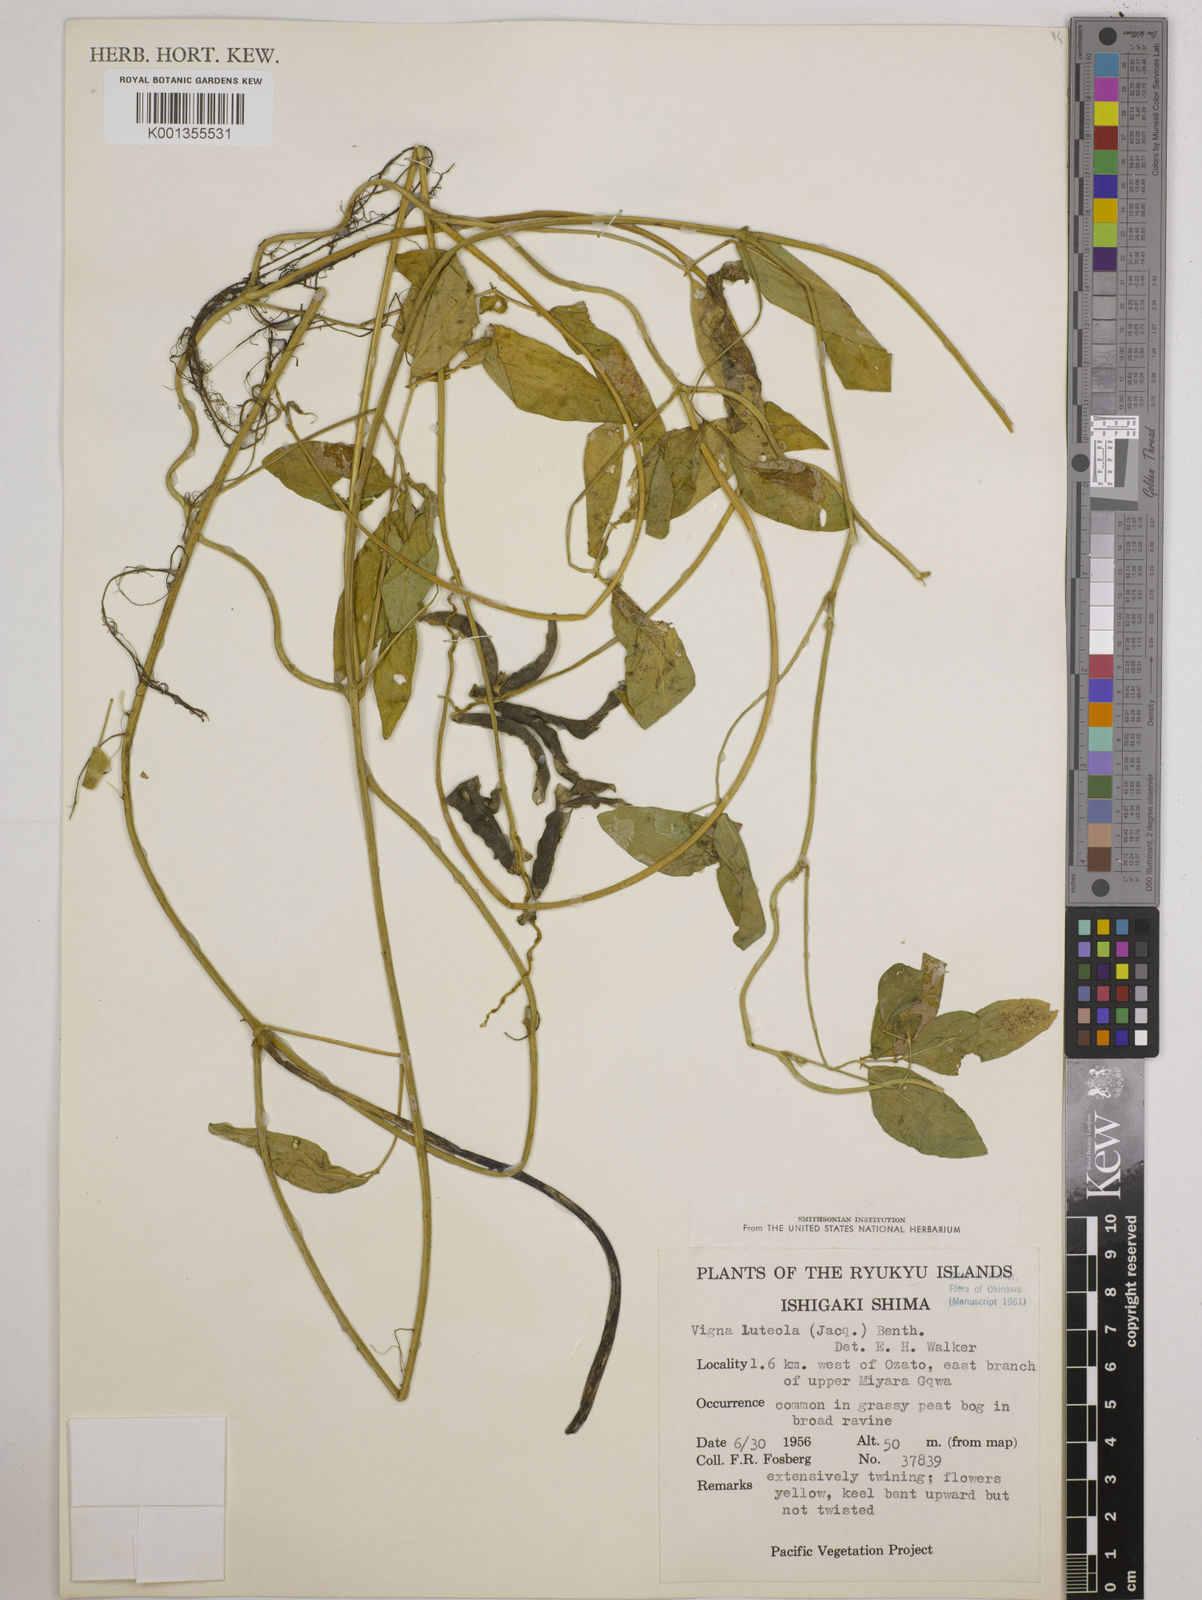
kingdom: Plantae
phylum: Tracheophyta
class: Magnoliopsida
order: Fabales
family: Fabaceae
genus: Vigna
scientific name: Vigna luteola
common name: Hairypod cowpea
